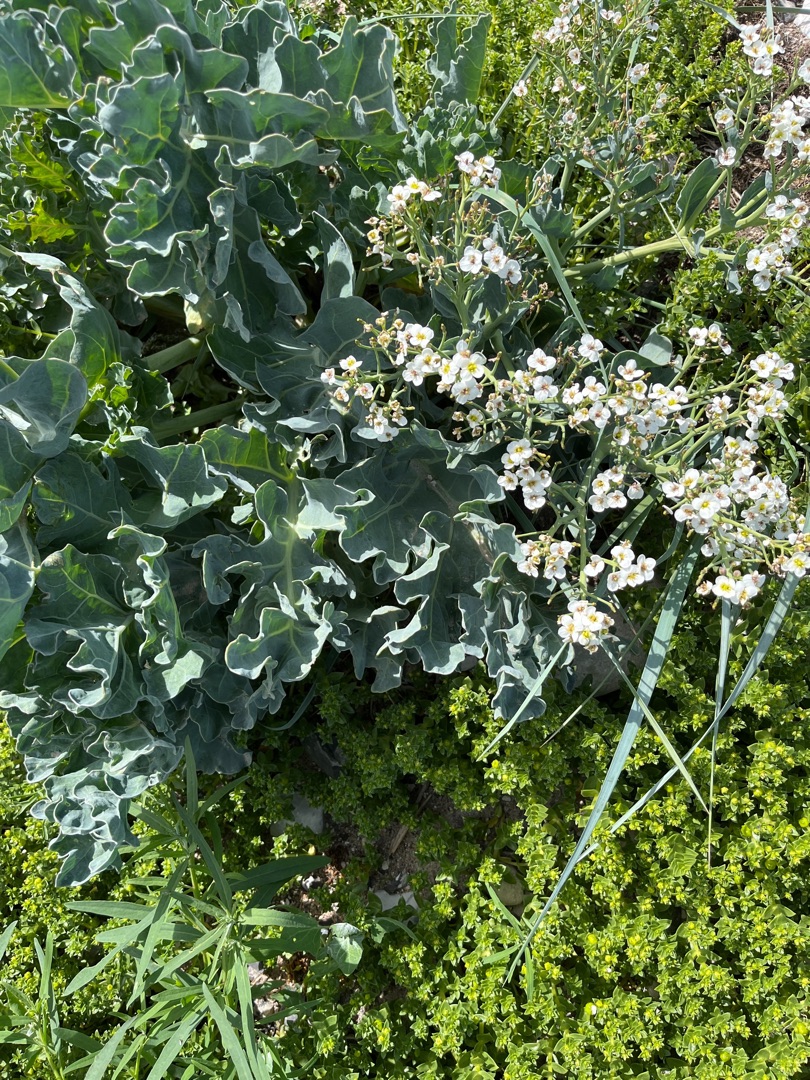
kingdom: Plantae
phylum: Tracheophyta
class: Magnoliopsida
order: Brassicales
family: Brassicaceae
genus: Crambe
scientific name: Crambe maritima
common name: Strandkål
